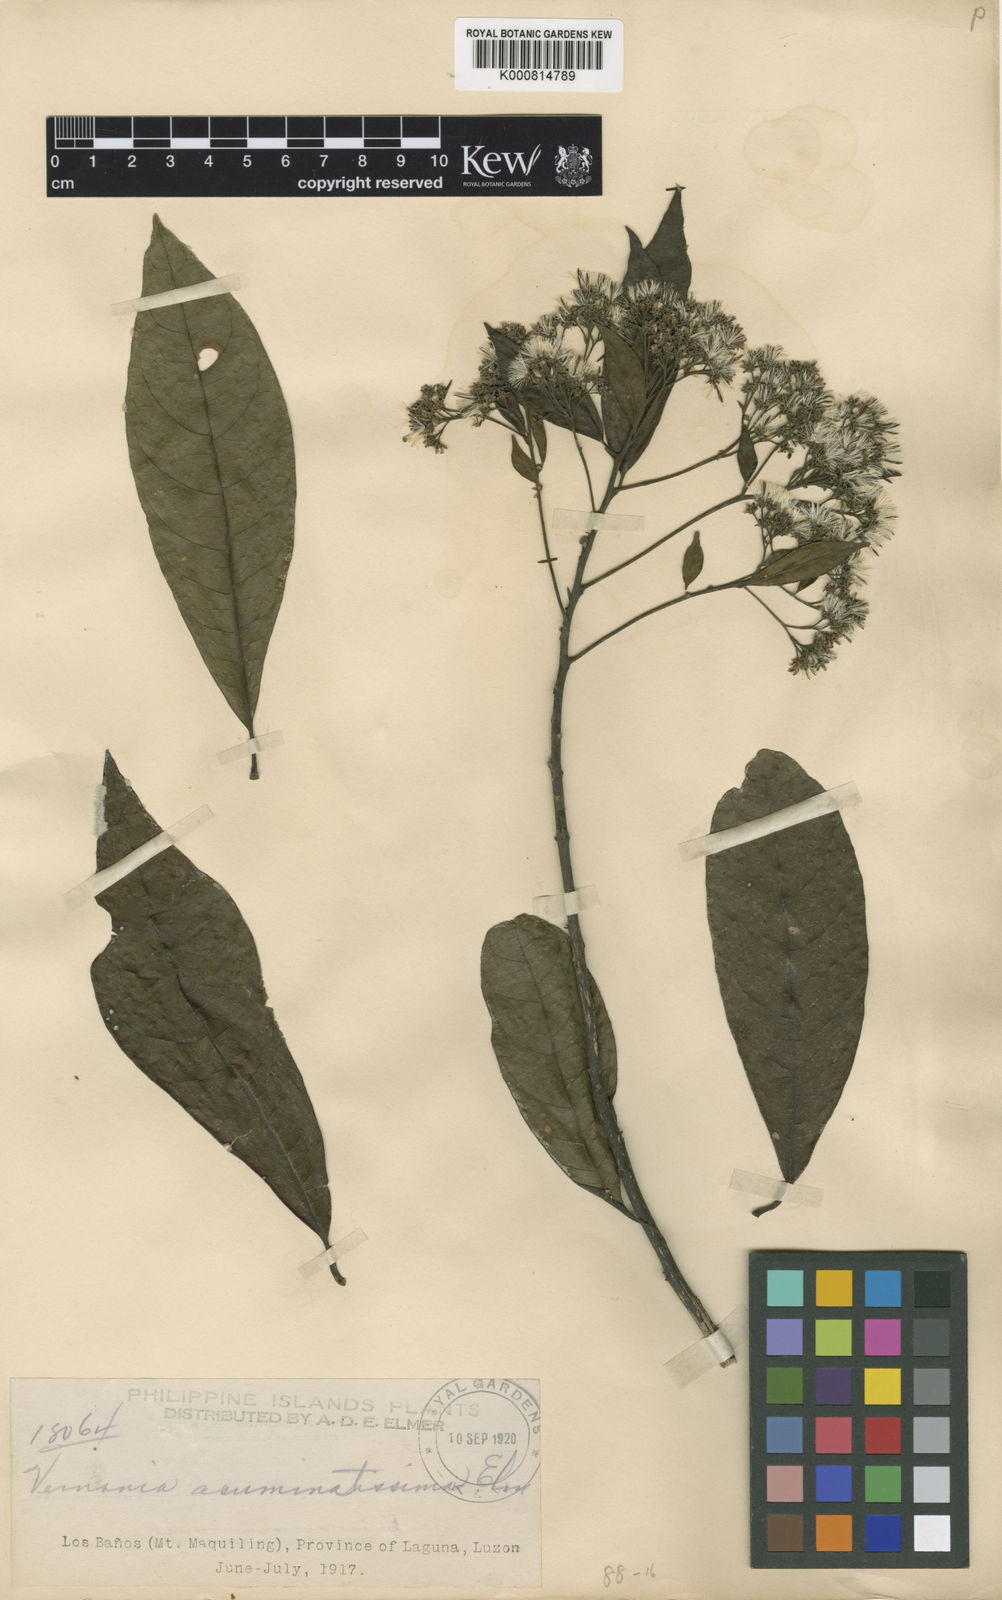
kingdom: Plantae
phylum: Tracheophyta
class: Magnoliopsida
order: Asterales
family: Asteraceae
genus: Vernonia
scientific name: Vernonia lancifolia
